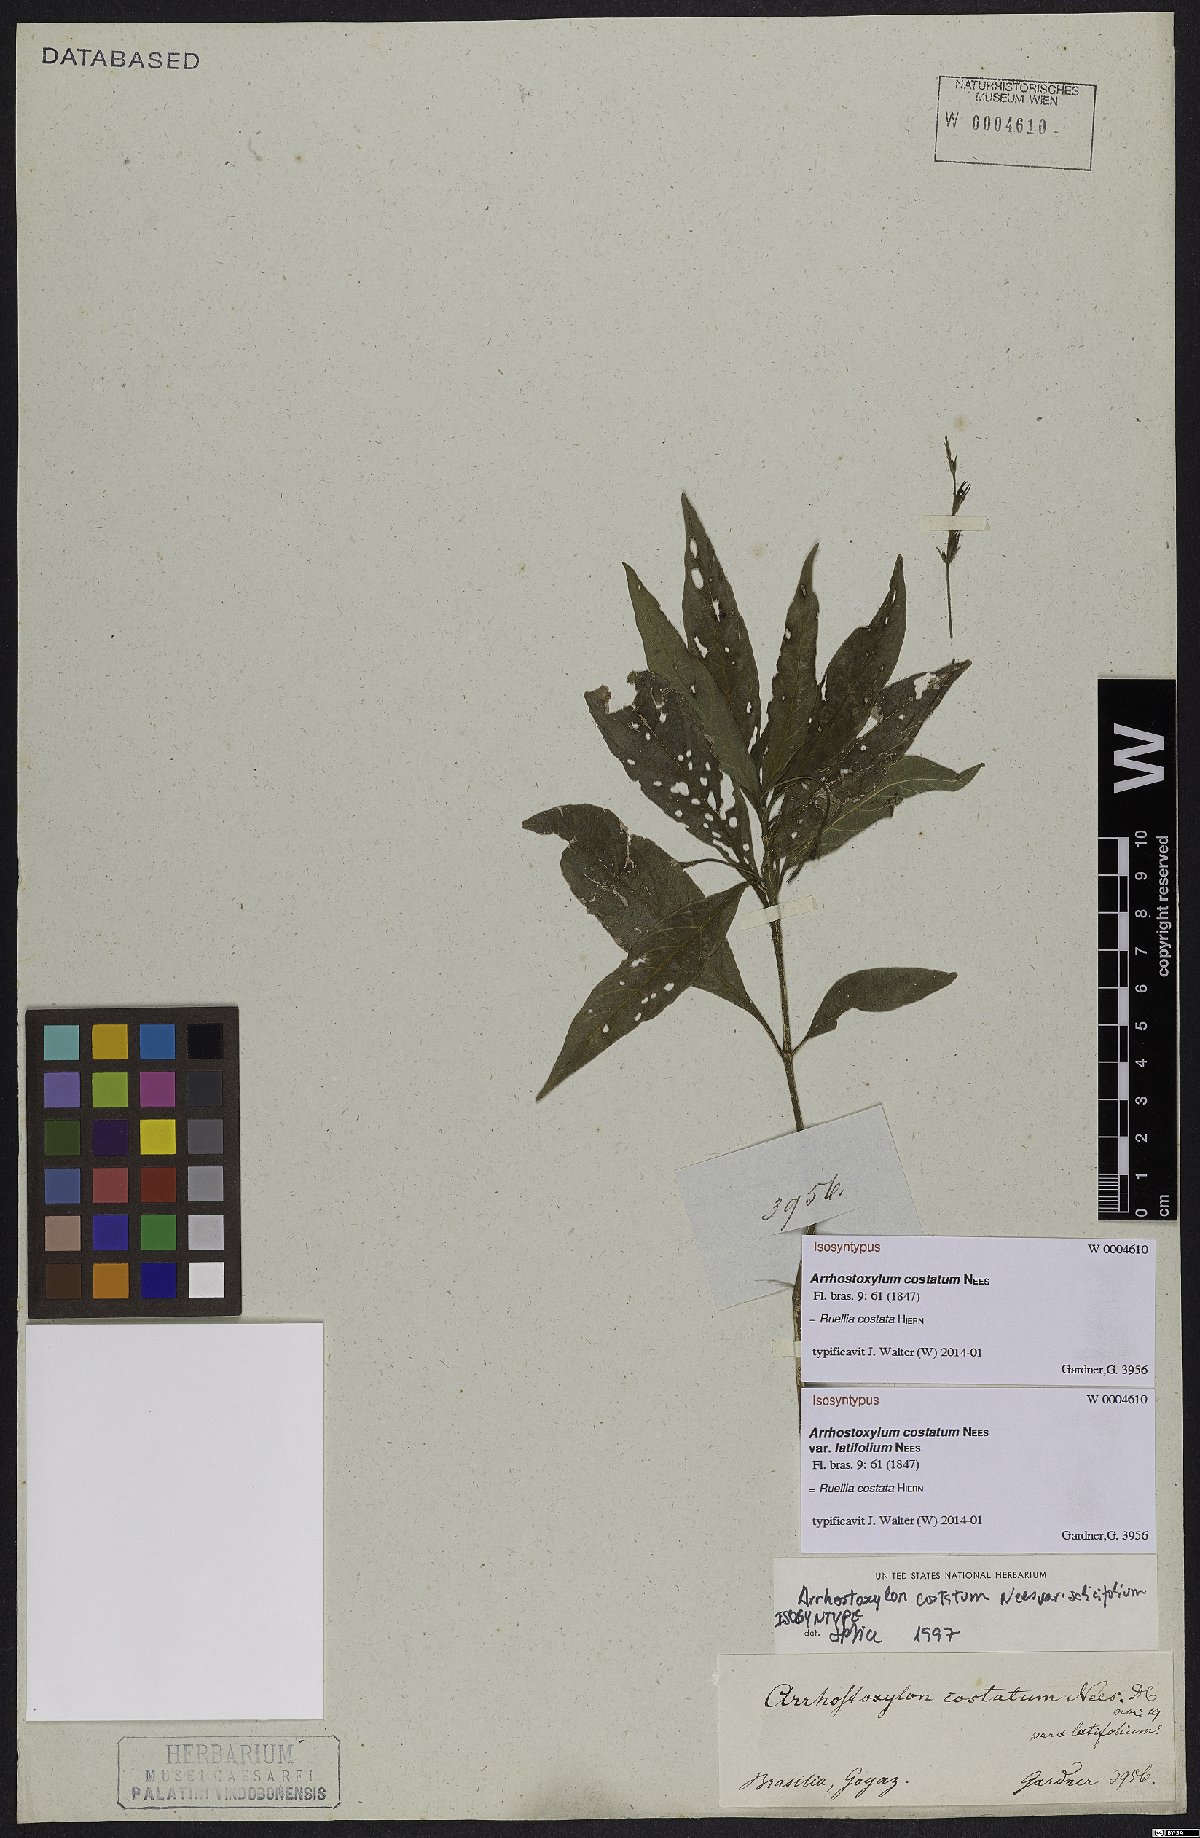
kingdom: Plantae
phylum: Tracheophyta
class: Magnoliopsida
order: Lamiales
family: Acanthaceae
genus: Ruellia
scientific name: Ruellia costata
